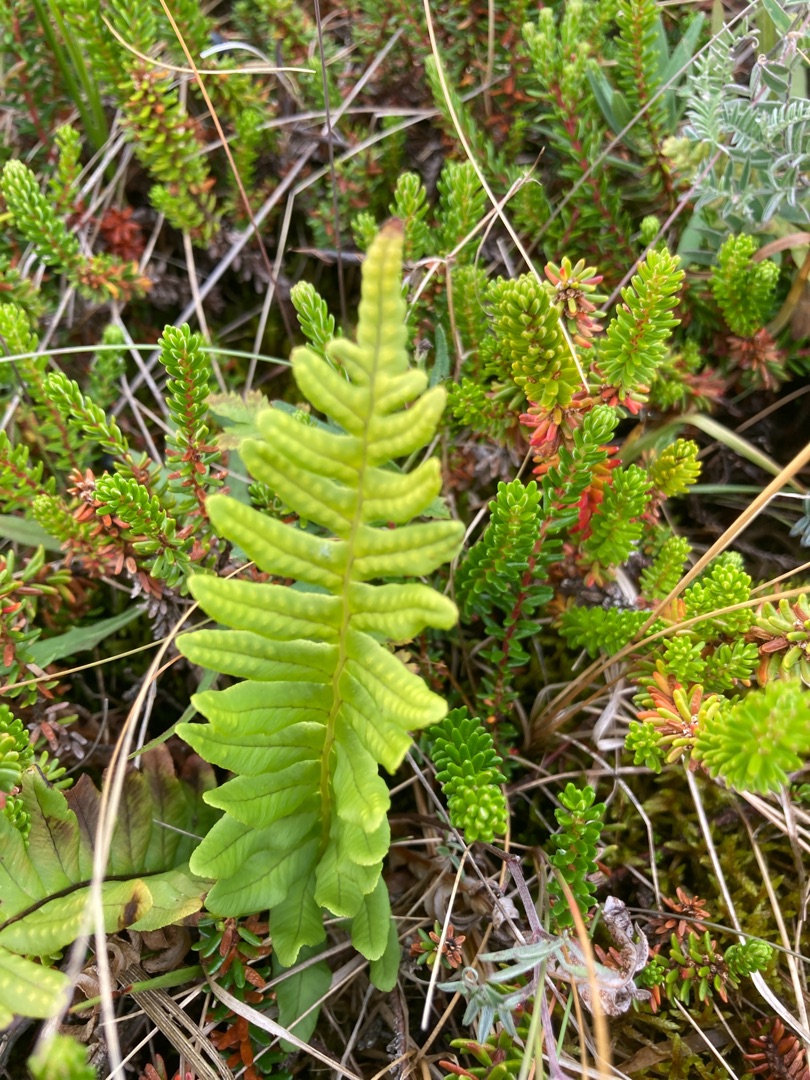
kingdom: Plantae
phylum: Tracheophyta
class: Polypodiopsida
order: Polypodiales
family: Polypodiaceae
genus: Polypodium
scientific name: Polypodium vulgare
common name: Almindelig engelsød
